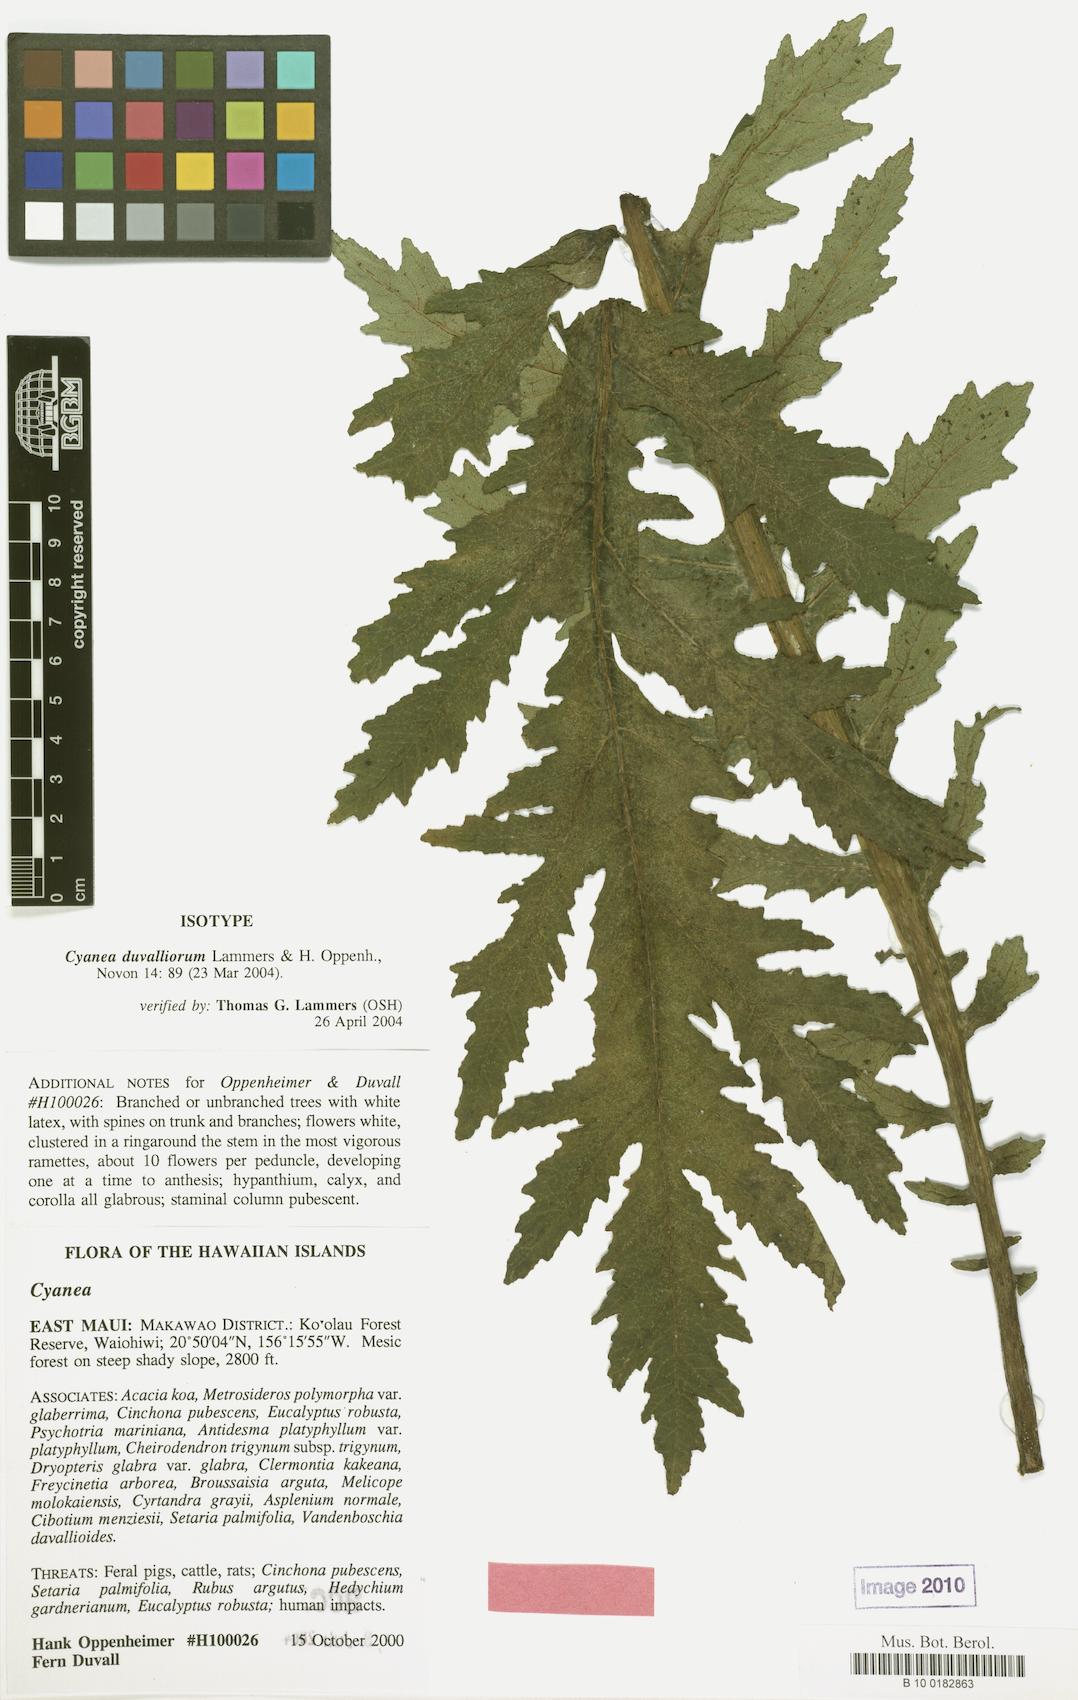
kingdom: Plantae
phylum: Tracheophyta
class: Magnoliopsida
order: Asterales
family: Campanulaceae
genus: Cyanea
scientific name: Cyanea duvalliorum
